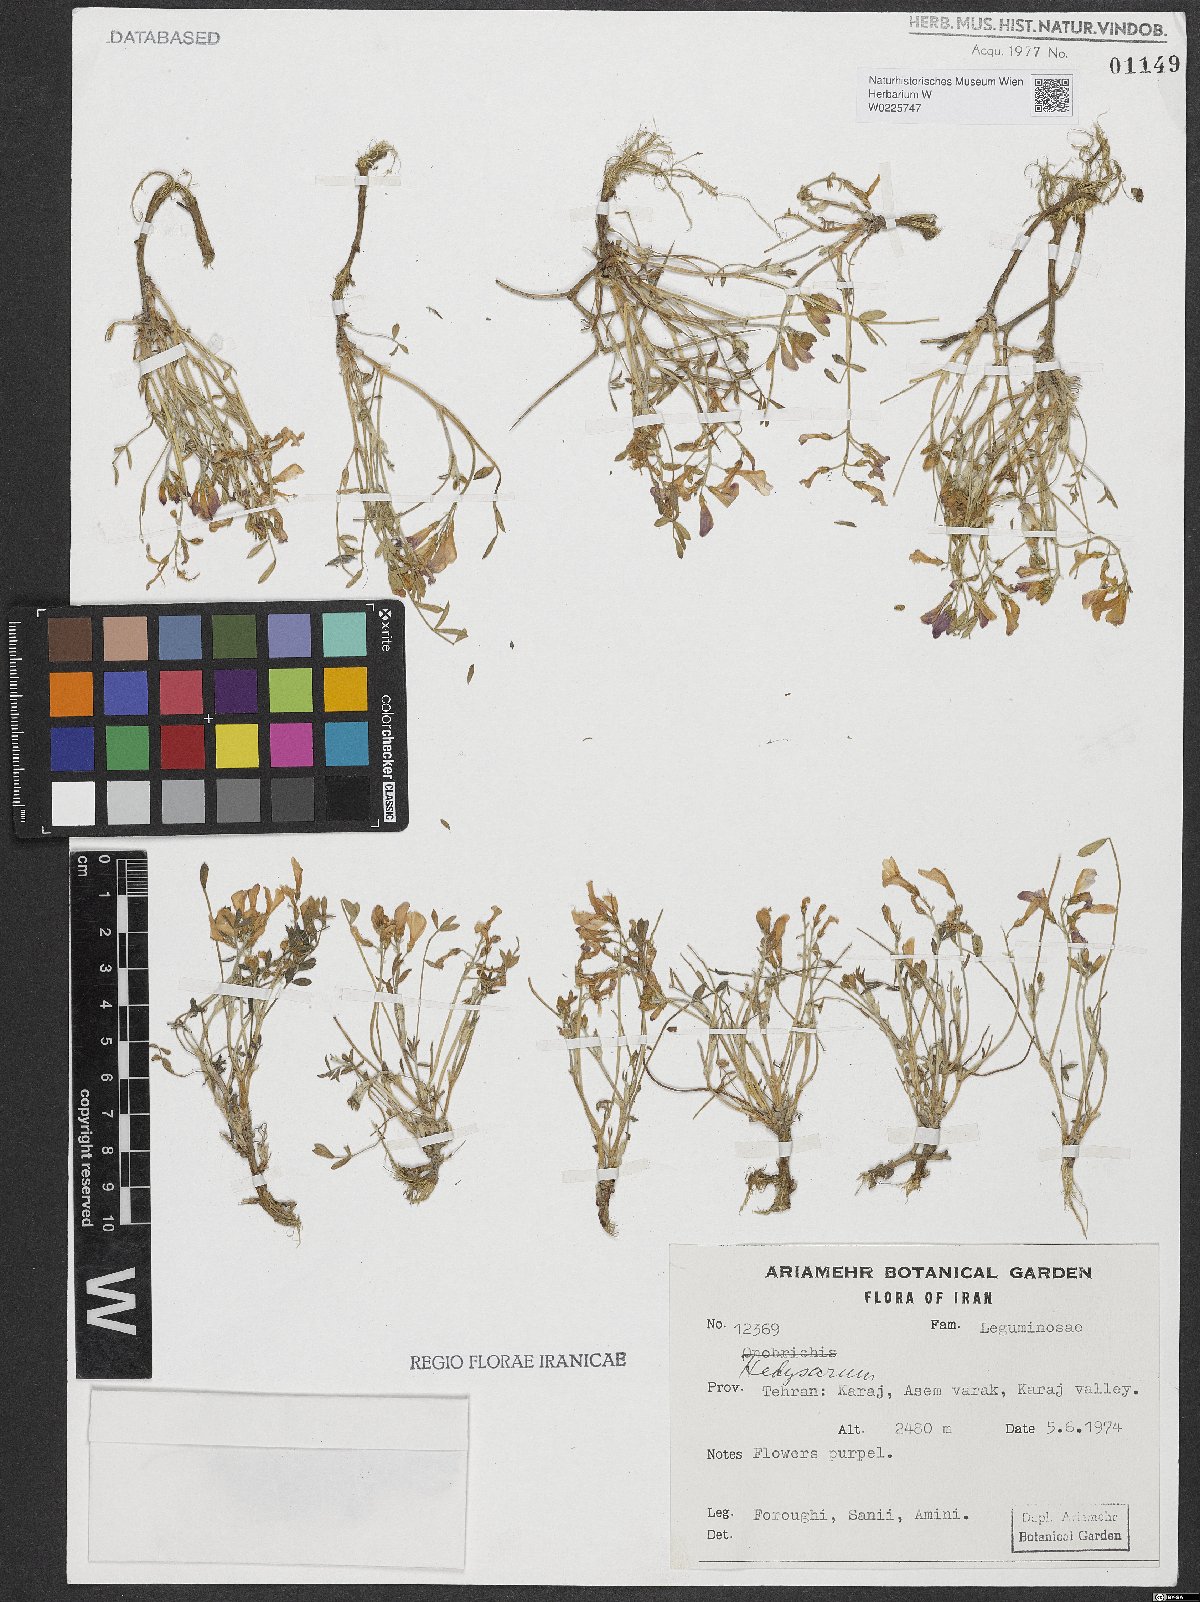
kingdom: Plantae
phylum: Tracheophyta
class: Magnoliopsida
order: Fabales
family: Fabaceae
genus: Hedysarum
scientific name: Hedysarum
